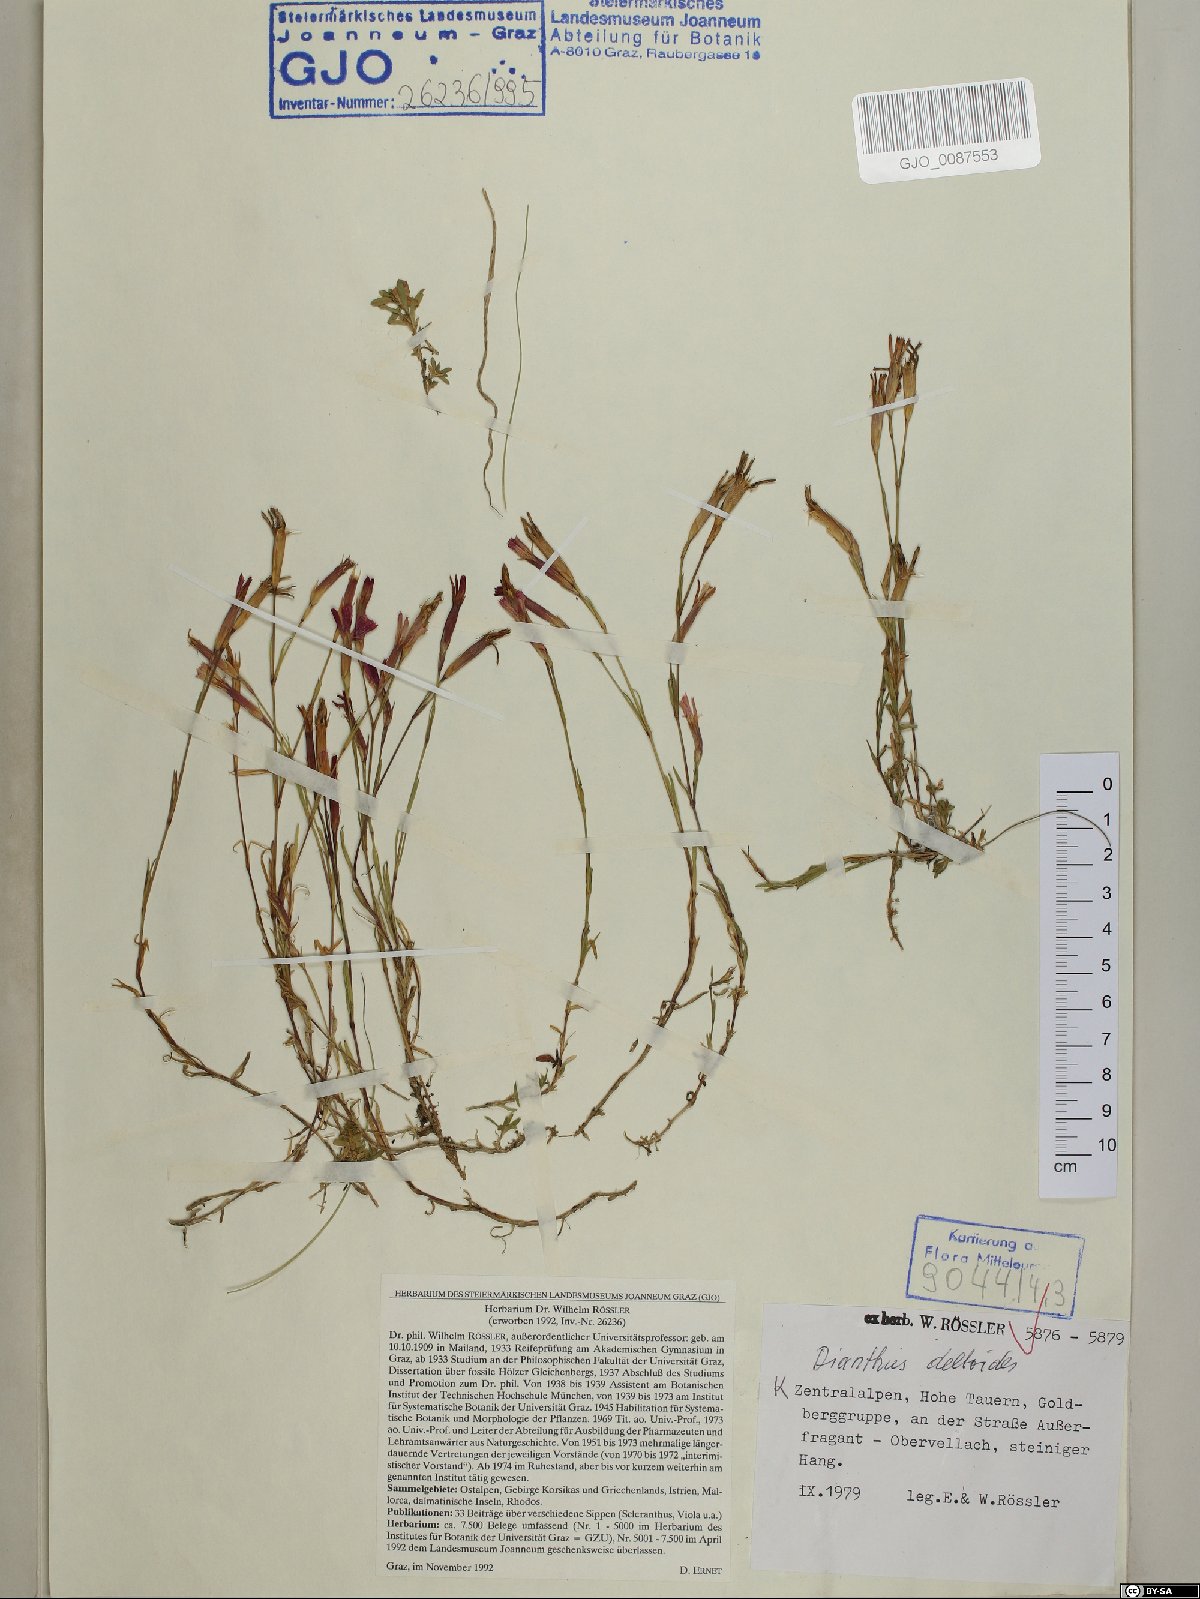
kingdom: Plantae
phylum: Tracheophyta
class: Magnoliopsida
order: Caryophyllales
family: Caryophyllaceae
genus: Dianthus
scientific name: Dianthus deltoides
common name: Maiden pink
